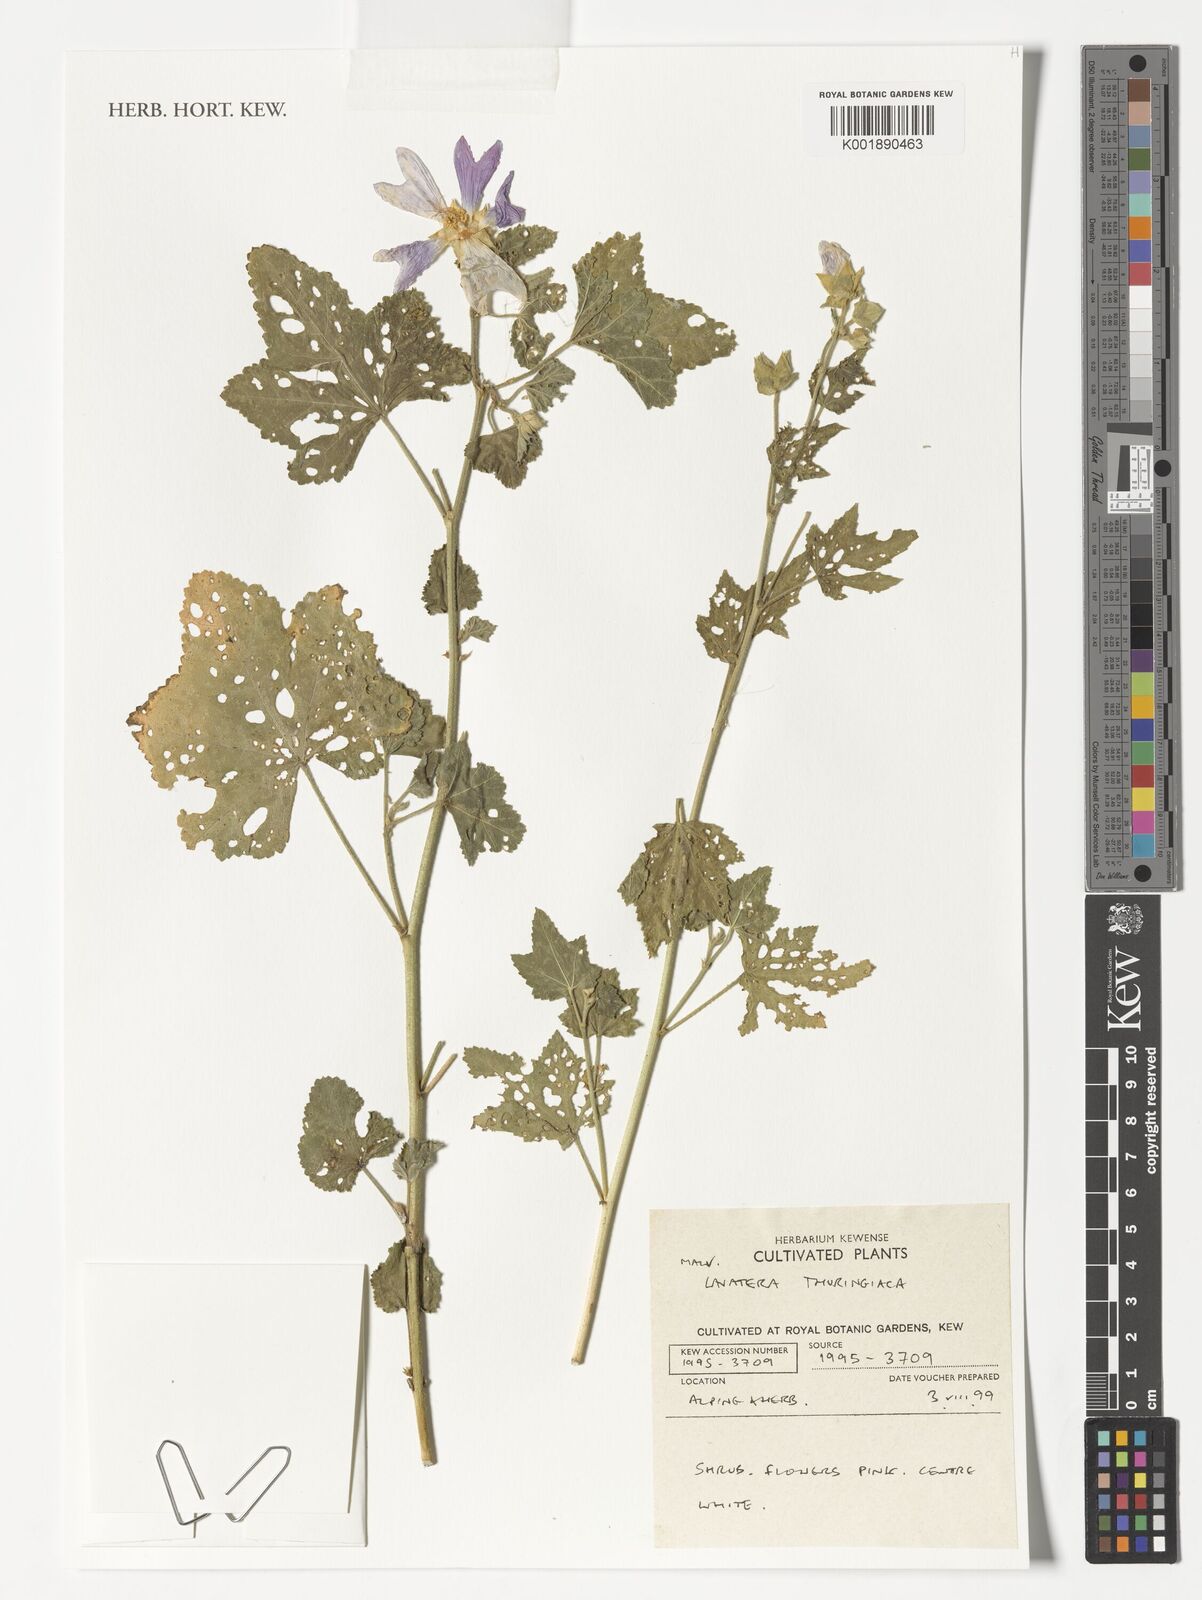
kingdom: Plantae
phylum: Tracheophyta
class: Magnoliopsida
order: Malvales
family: Malvaceae
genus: Malva
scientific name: Malva olbia
